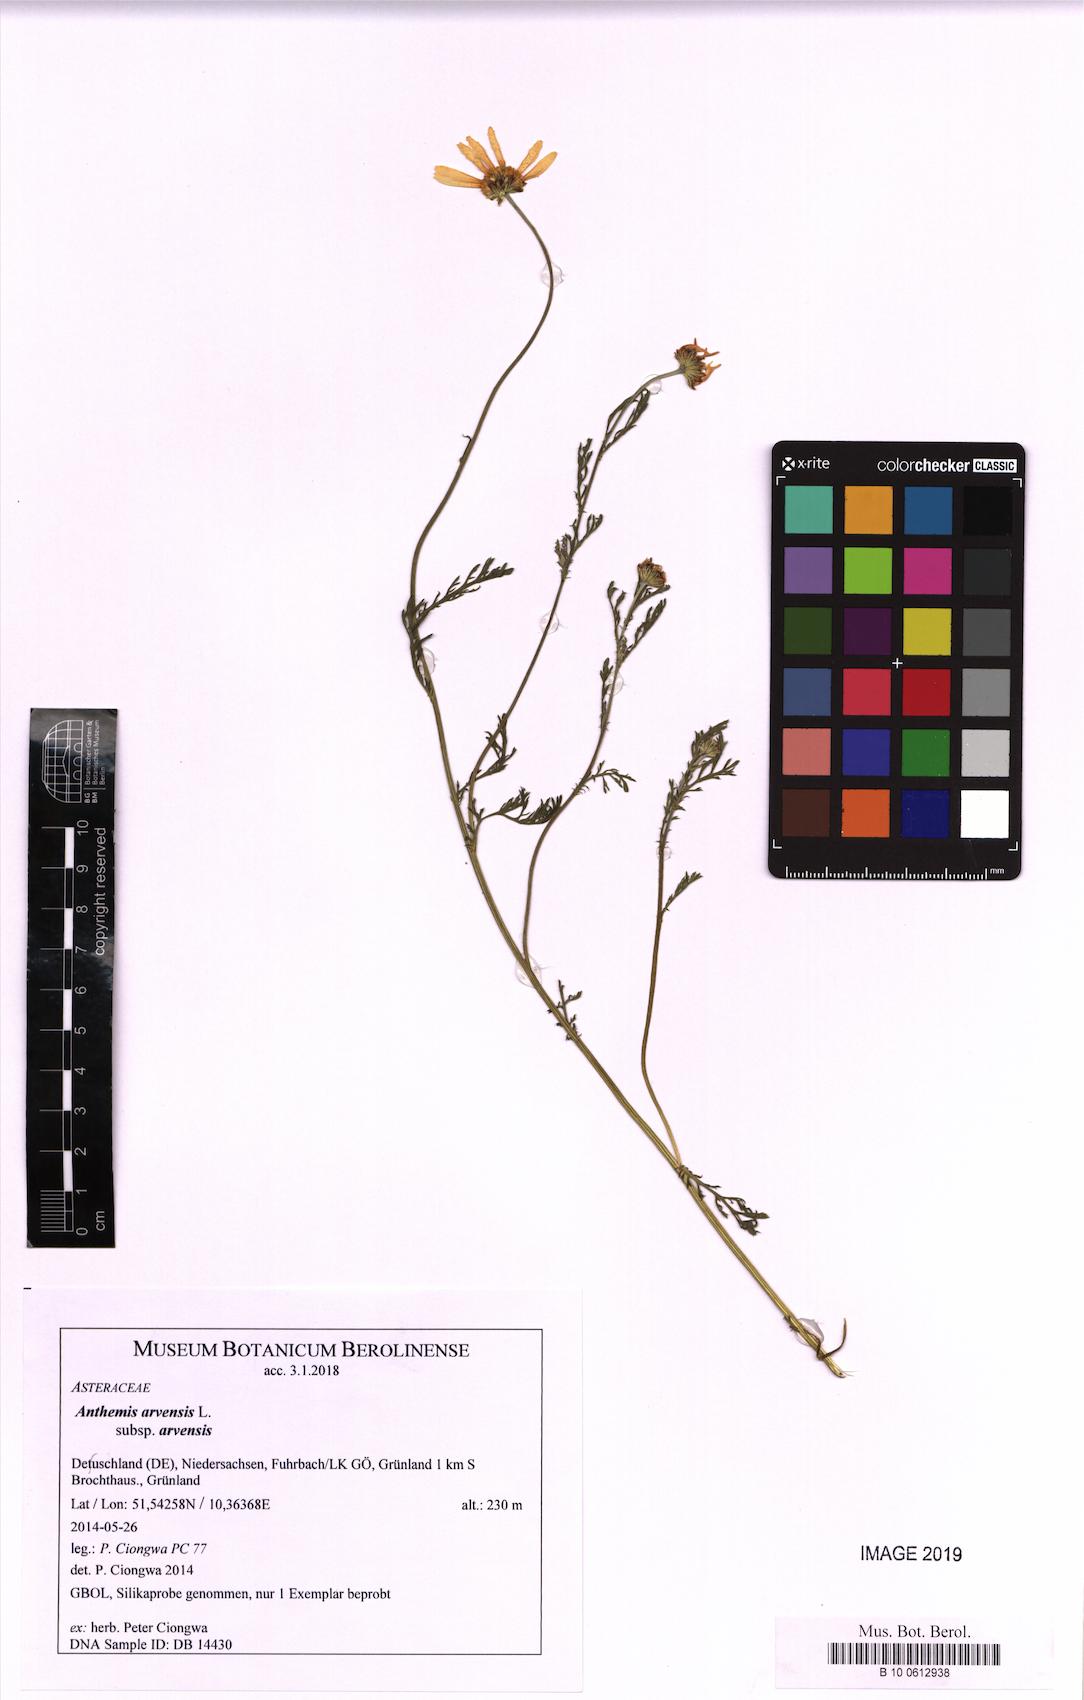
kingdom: Plantae
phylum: Tracheophyta
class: Magnoliopsida
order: Asterales
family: Asteraceae
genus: Anthemis
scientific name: Anthemis arvensis
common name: Corn chamomile
